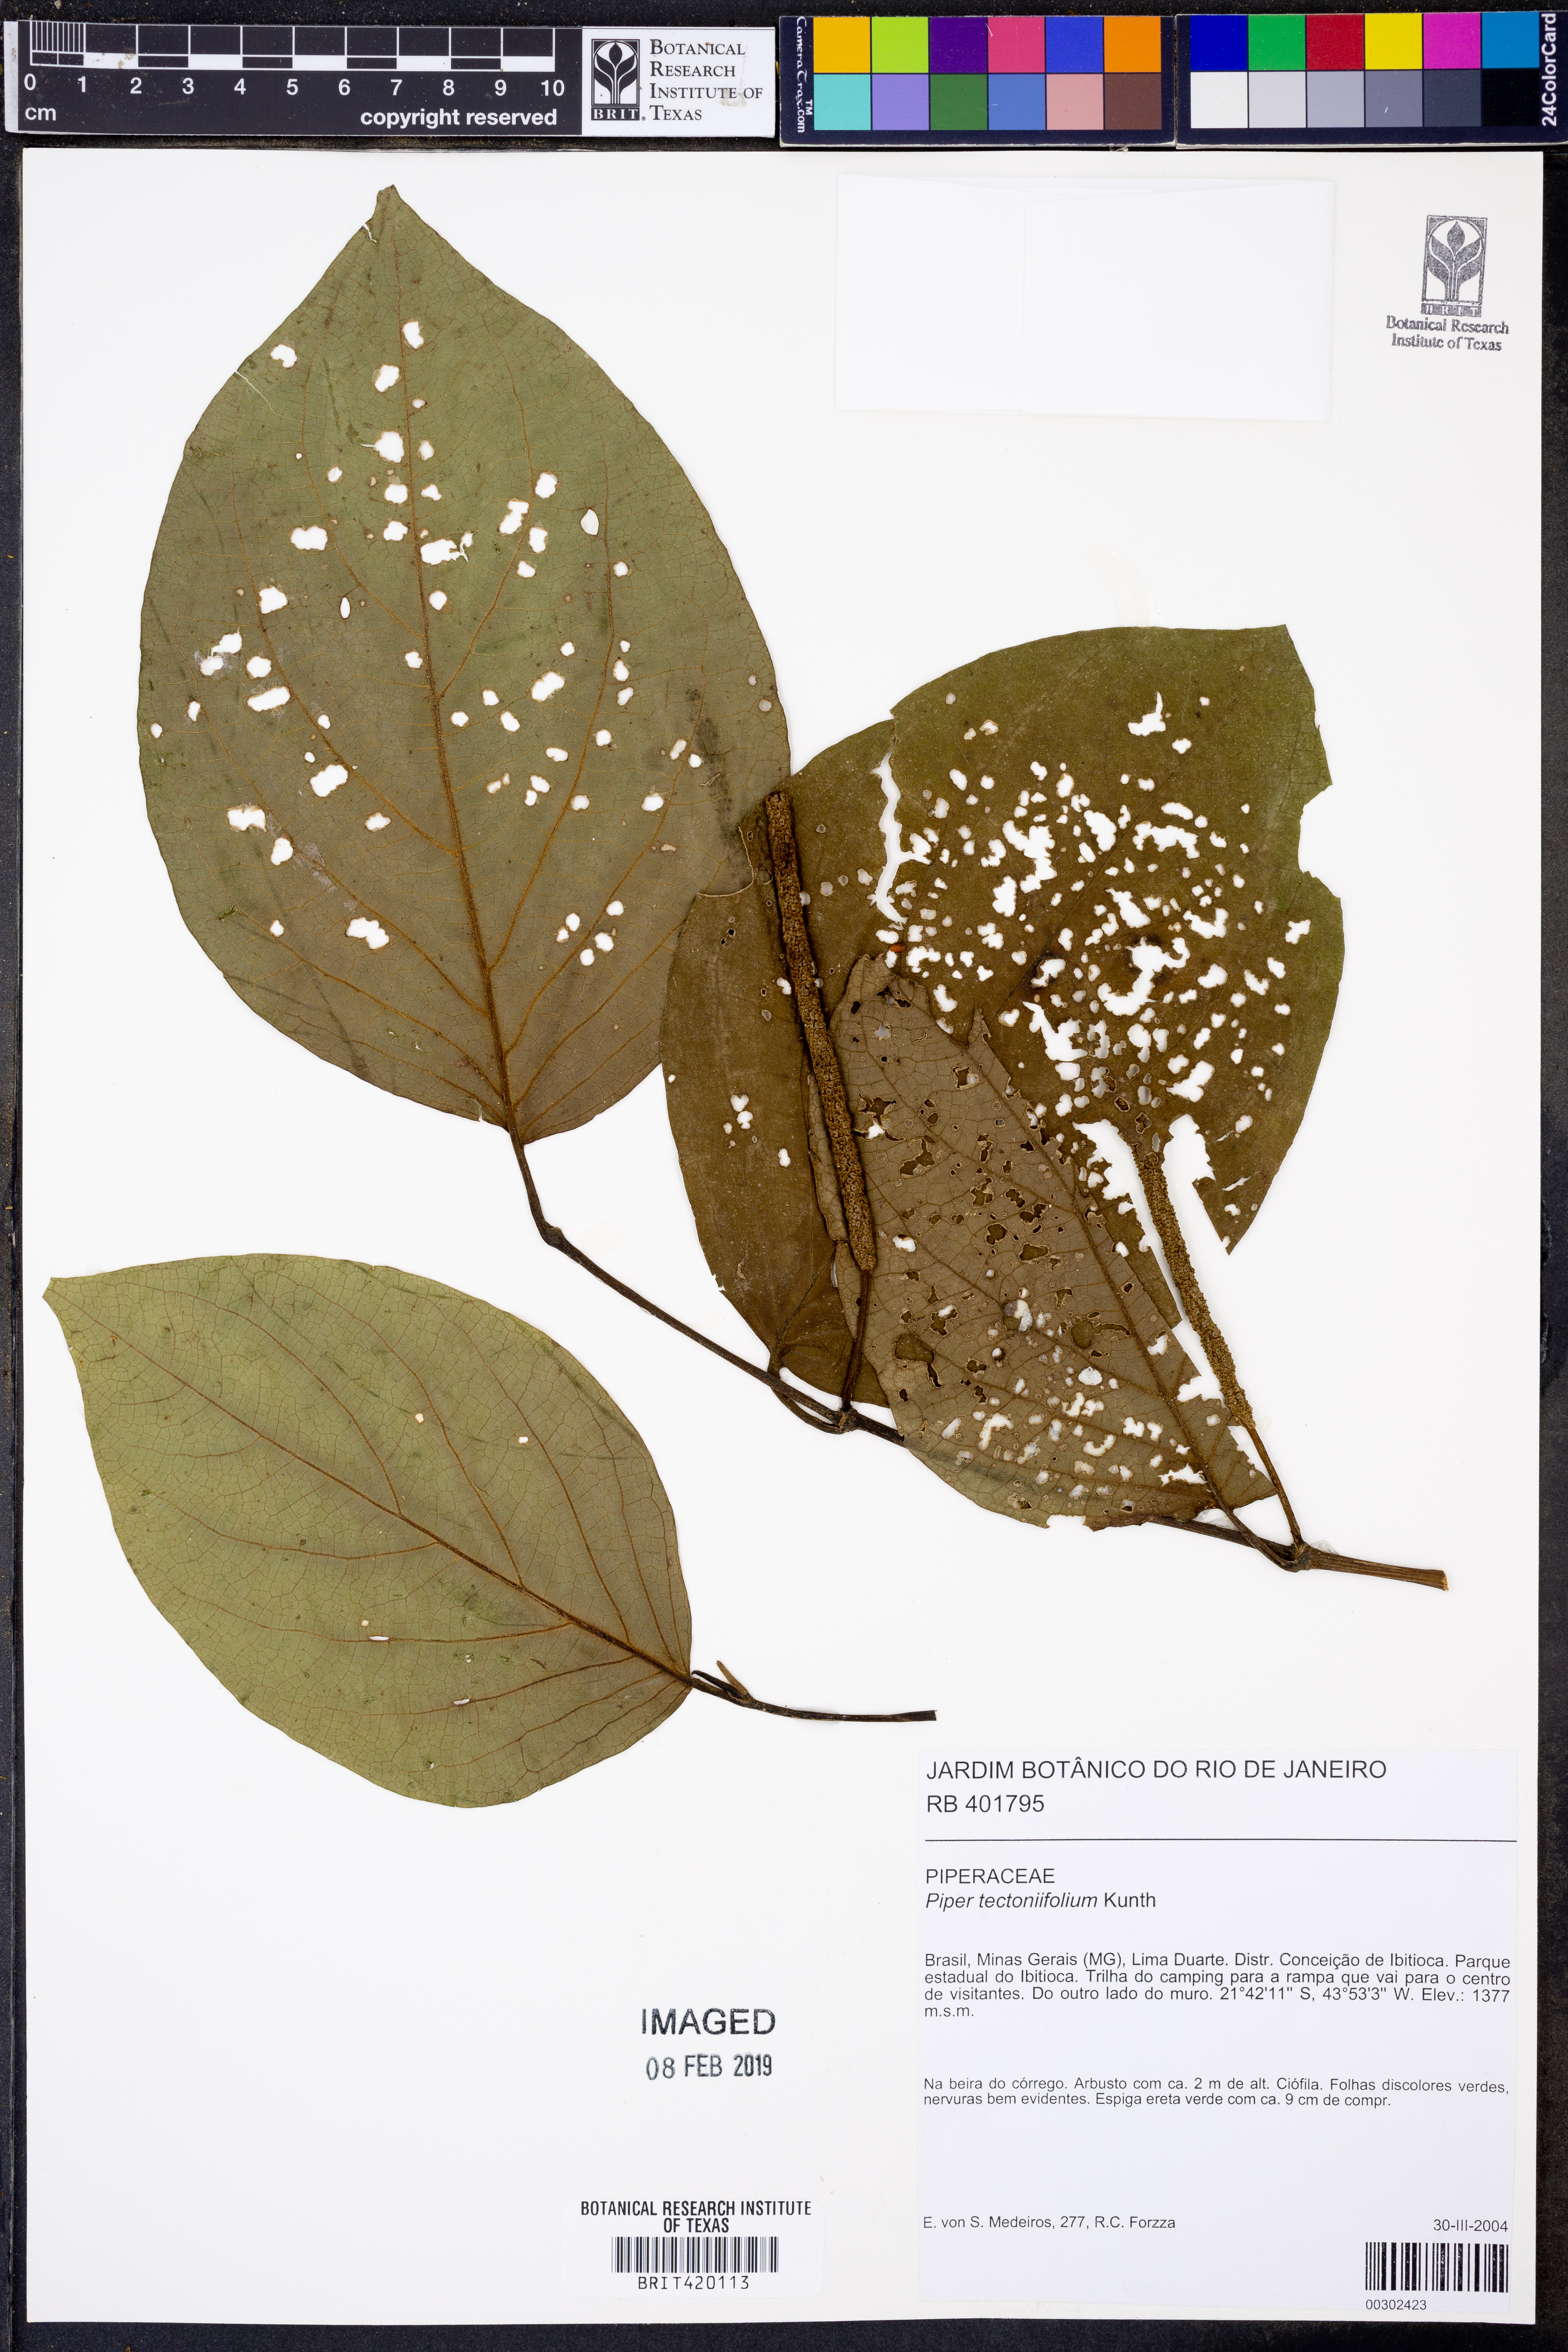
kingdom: Plantae
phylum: Tracheophyta
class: Magnoliopsida
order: Piperales
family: Piperaceae
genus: Piper
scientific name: Piper tectoniifolium
